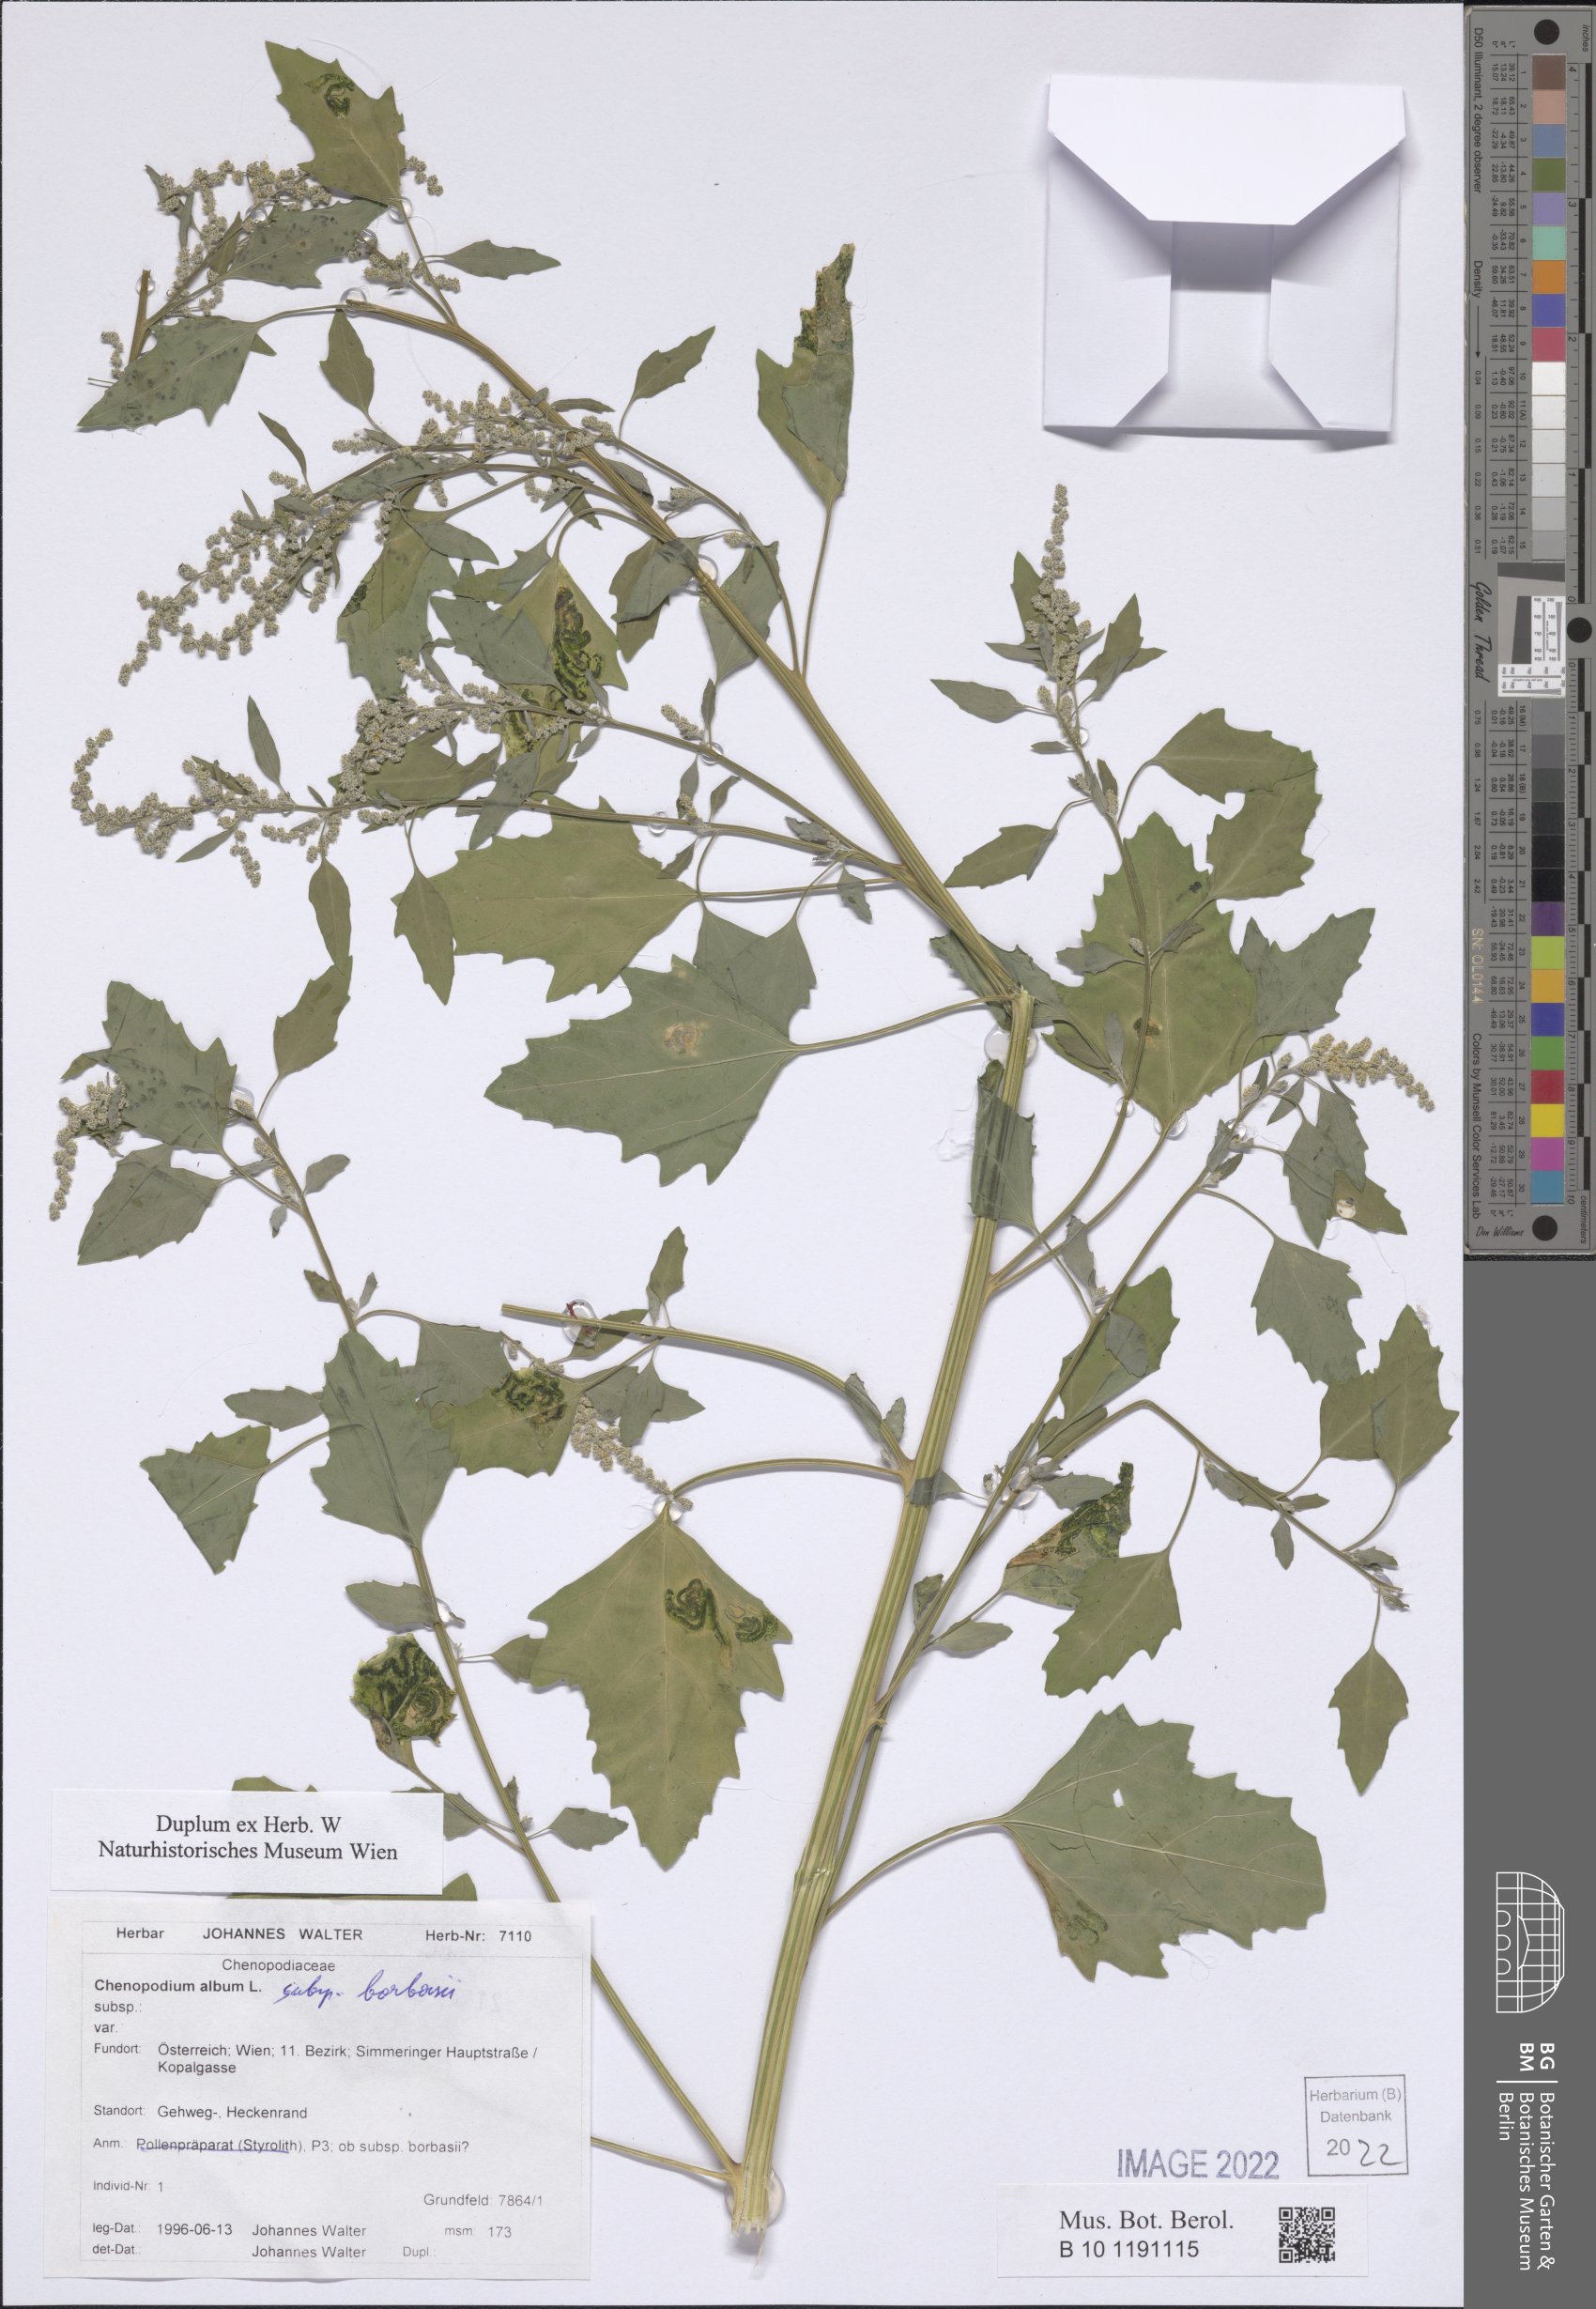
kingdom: Plantae
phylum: Tracheophyta
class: Magnoliopsida
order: Caryophyllales
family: Amaranthaceae
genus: Chenopodium
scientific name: Chenopodium borbasii
